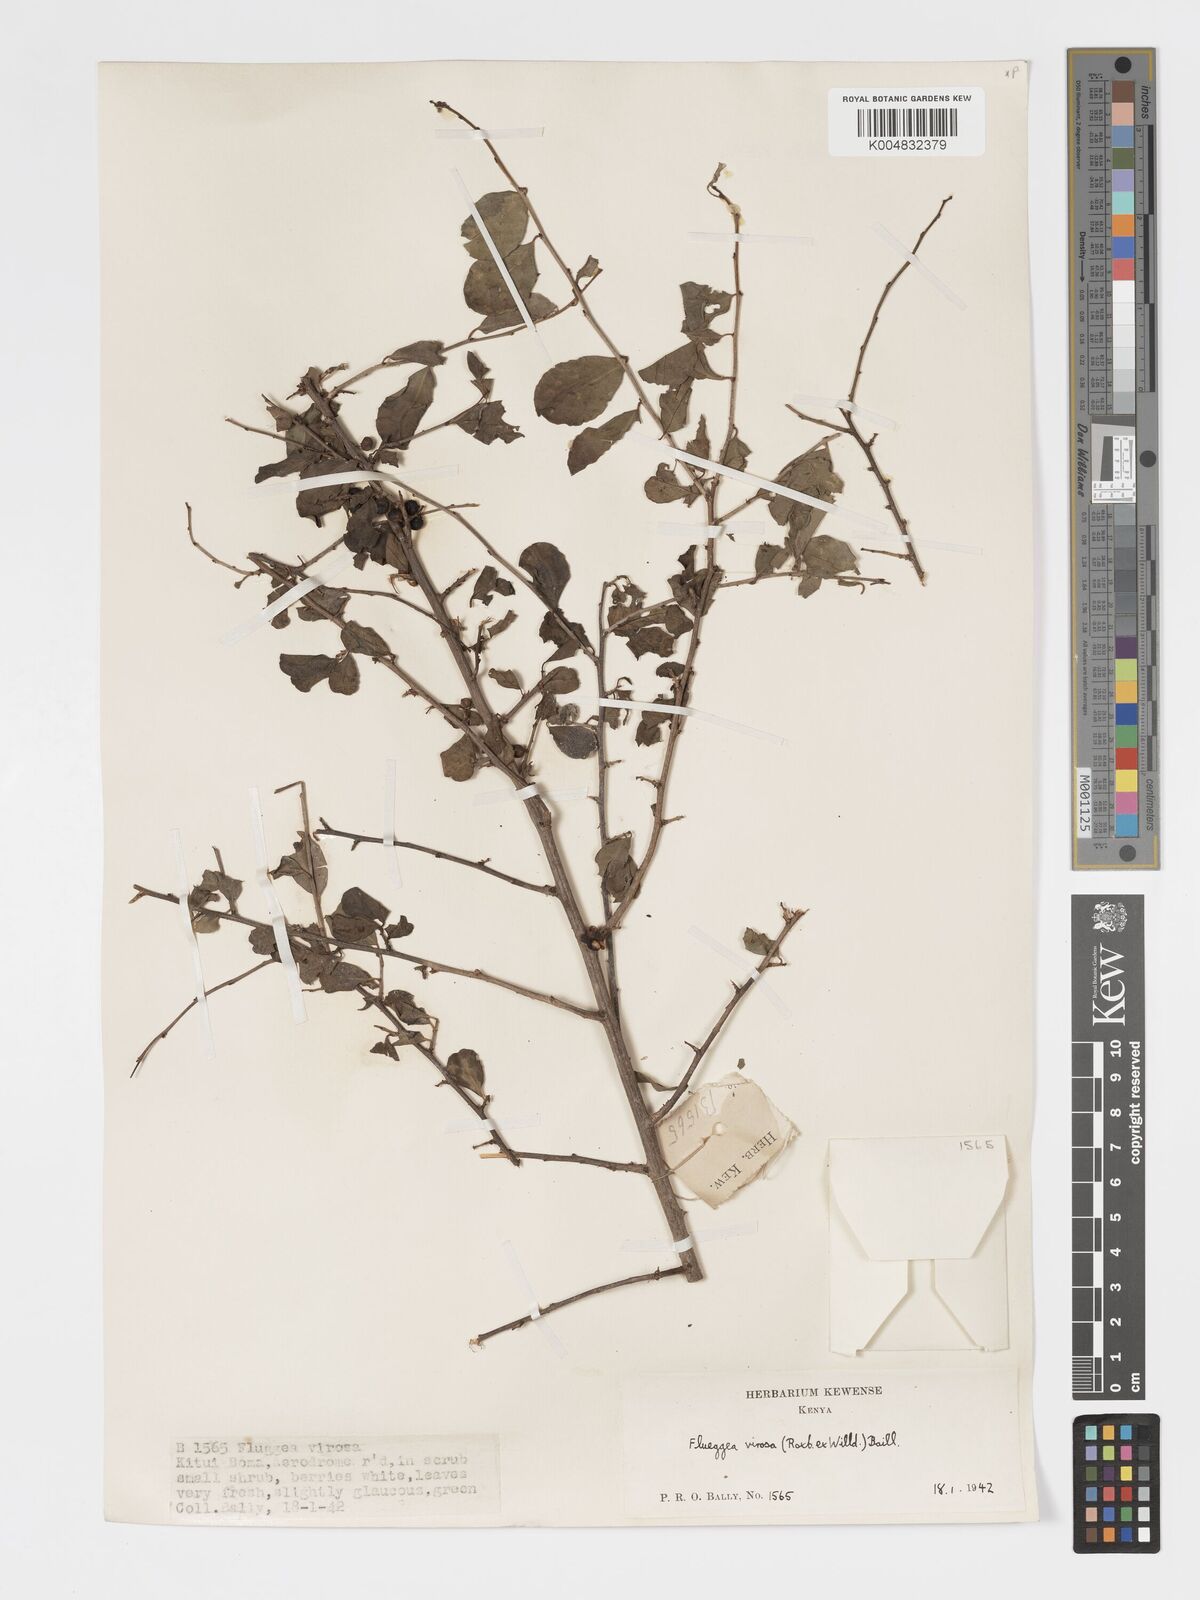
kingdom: Plantae
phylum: Tracheophyta
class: Magnoliopsida
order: Malpighiales
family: Phyllanthaceae
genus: Flueggea
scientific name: Flueggea
